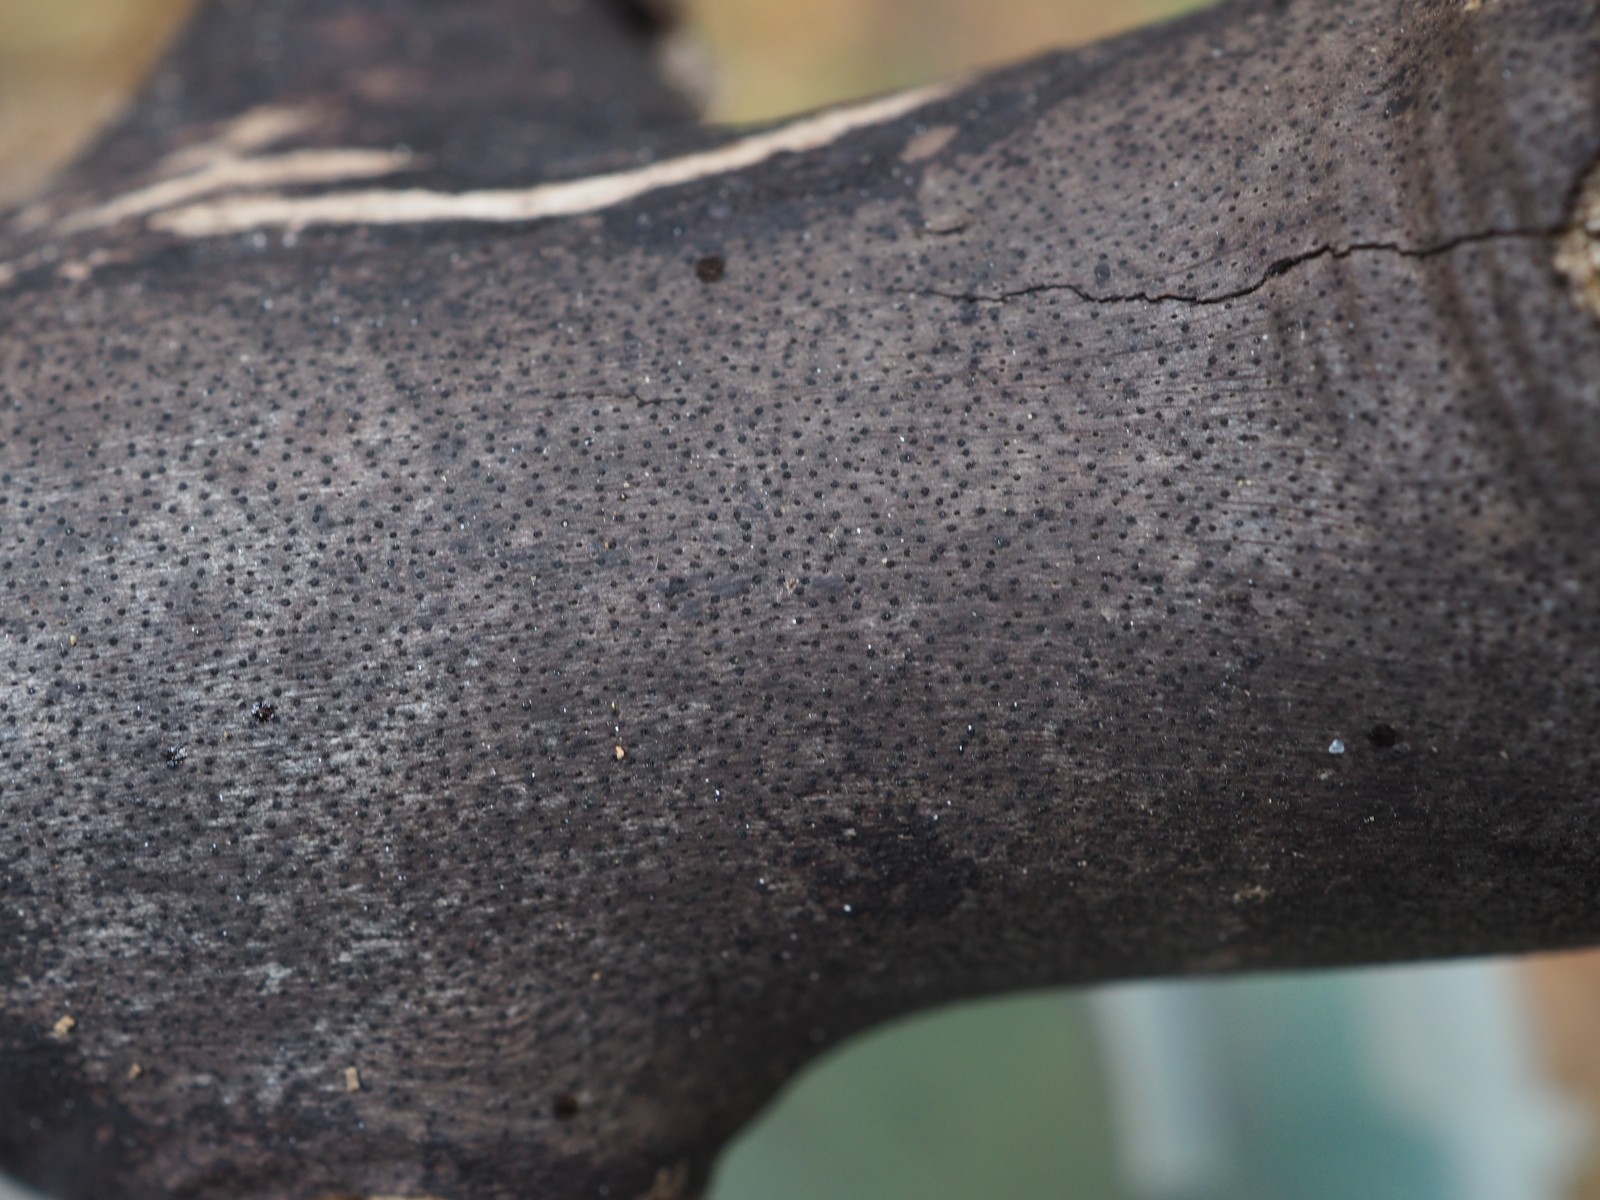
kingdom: Fungi
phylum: Ascomycota
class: Sordariomycetes
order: Xylariales
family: Diatrypaceae
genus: Eutypa
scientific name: Eutypa maura
